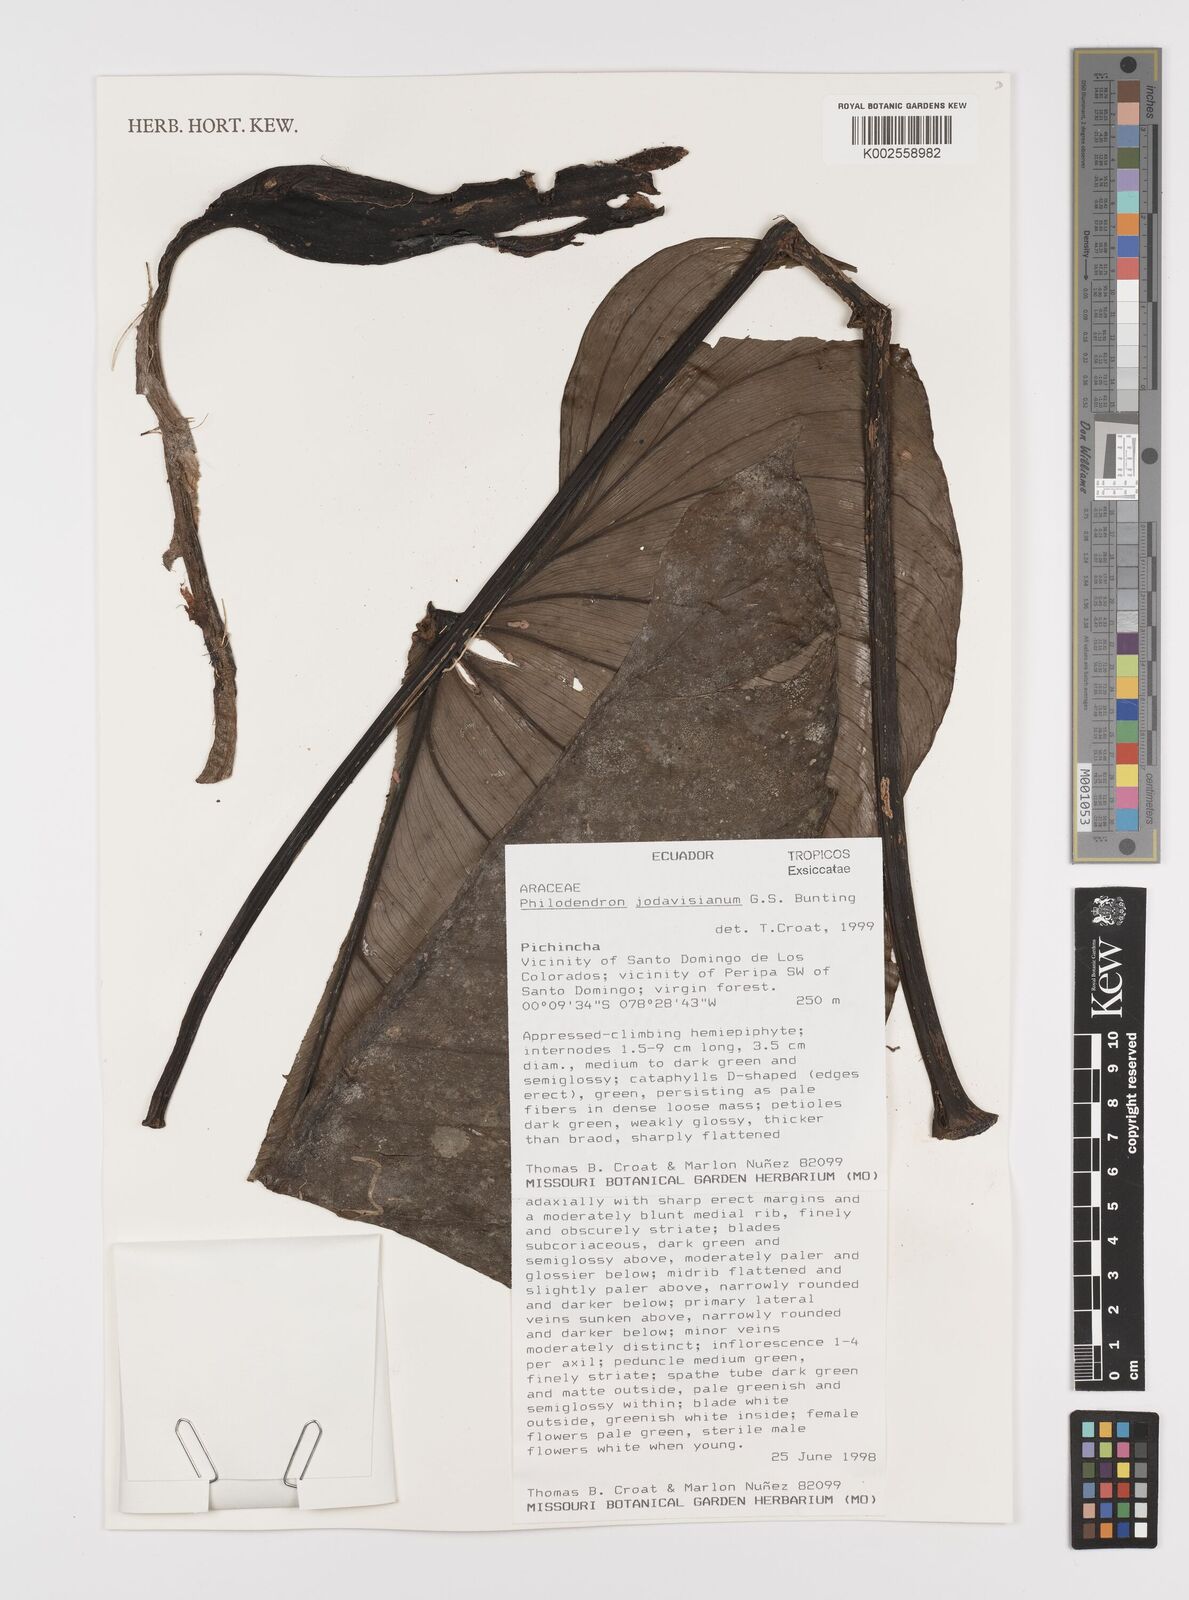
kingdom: Plantae
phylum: Tracheophyta
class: Liliopsida
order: Alismatales
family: Araceae
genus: Philodendron
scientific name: Philodendron jodavisianum
